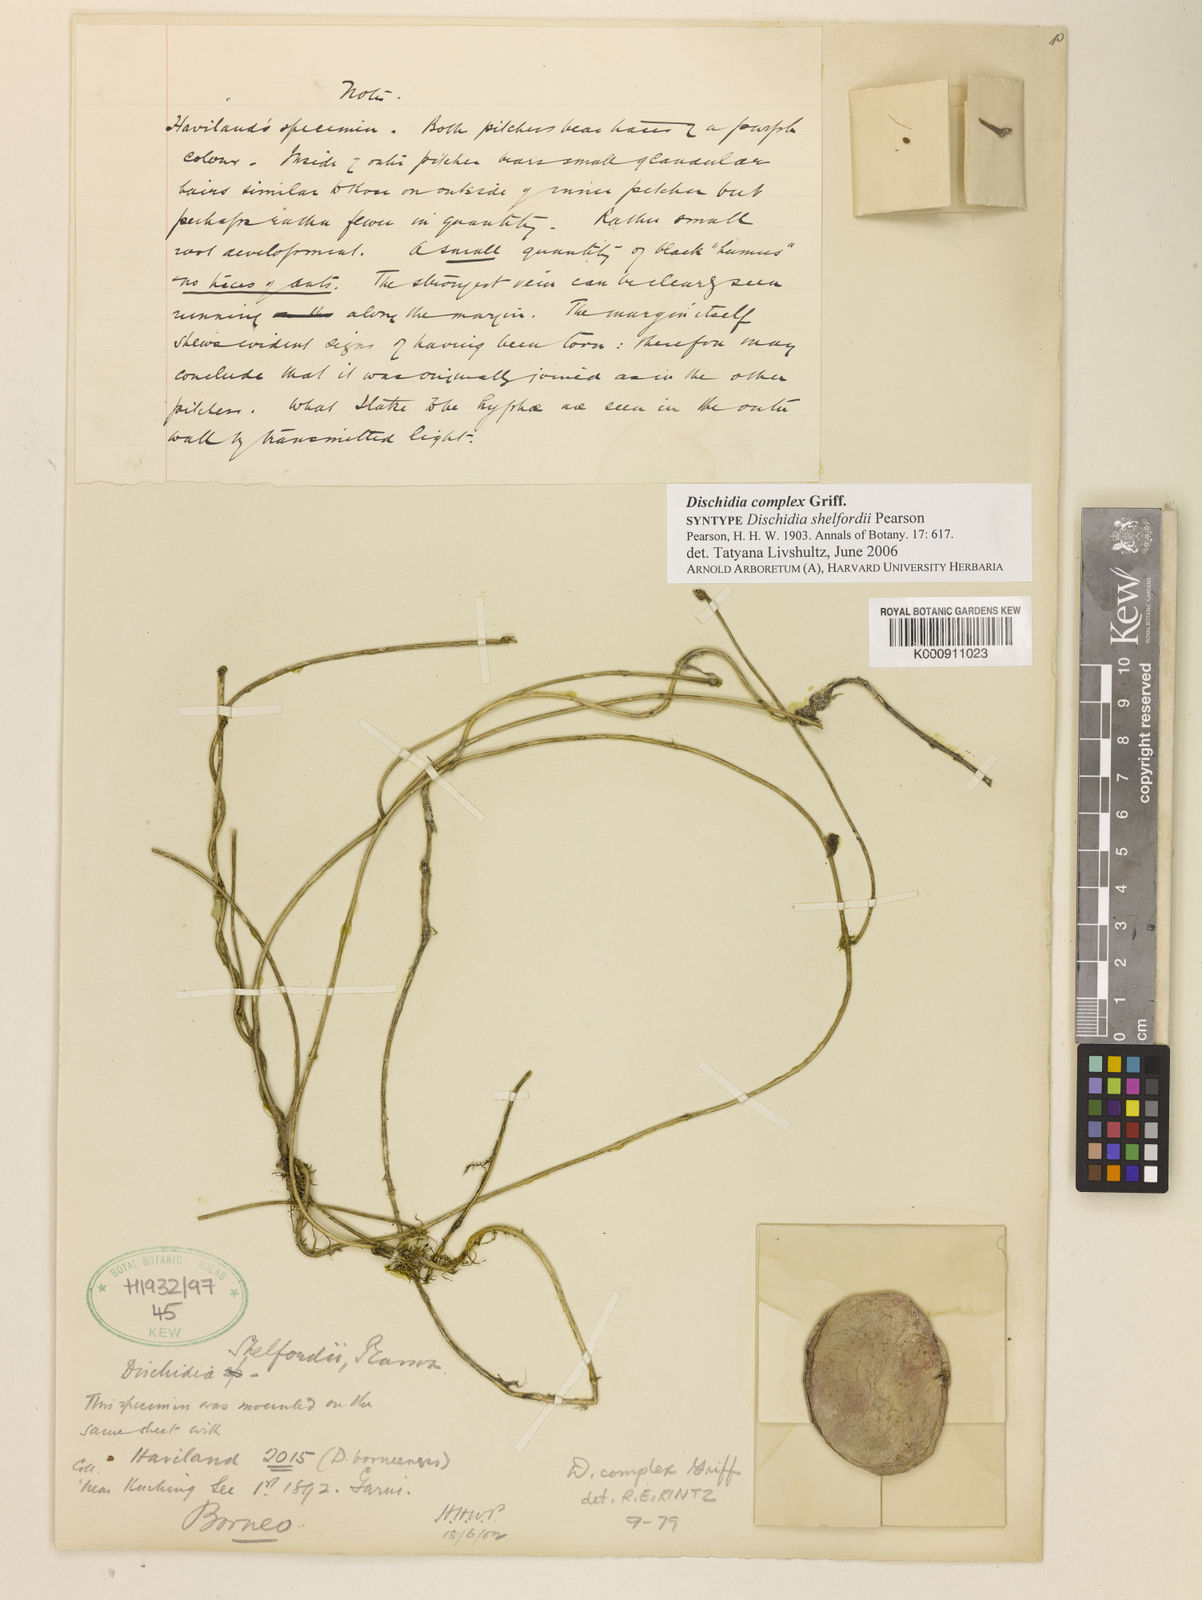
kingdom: Plantae
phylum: Tracheophyta
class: Magnoliopsida
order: Gentianales
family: Apocynaceae
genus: Dischidia
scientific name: Dischidia complex
